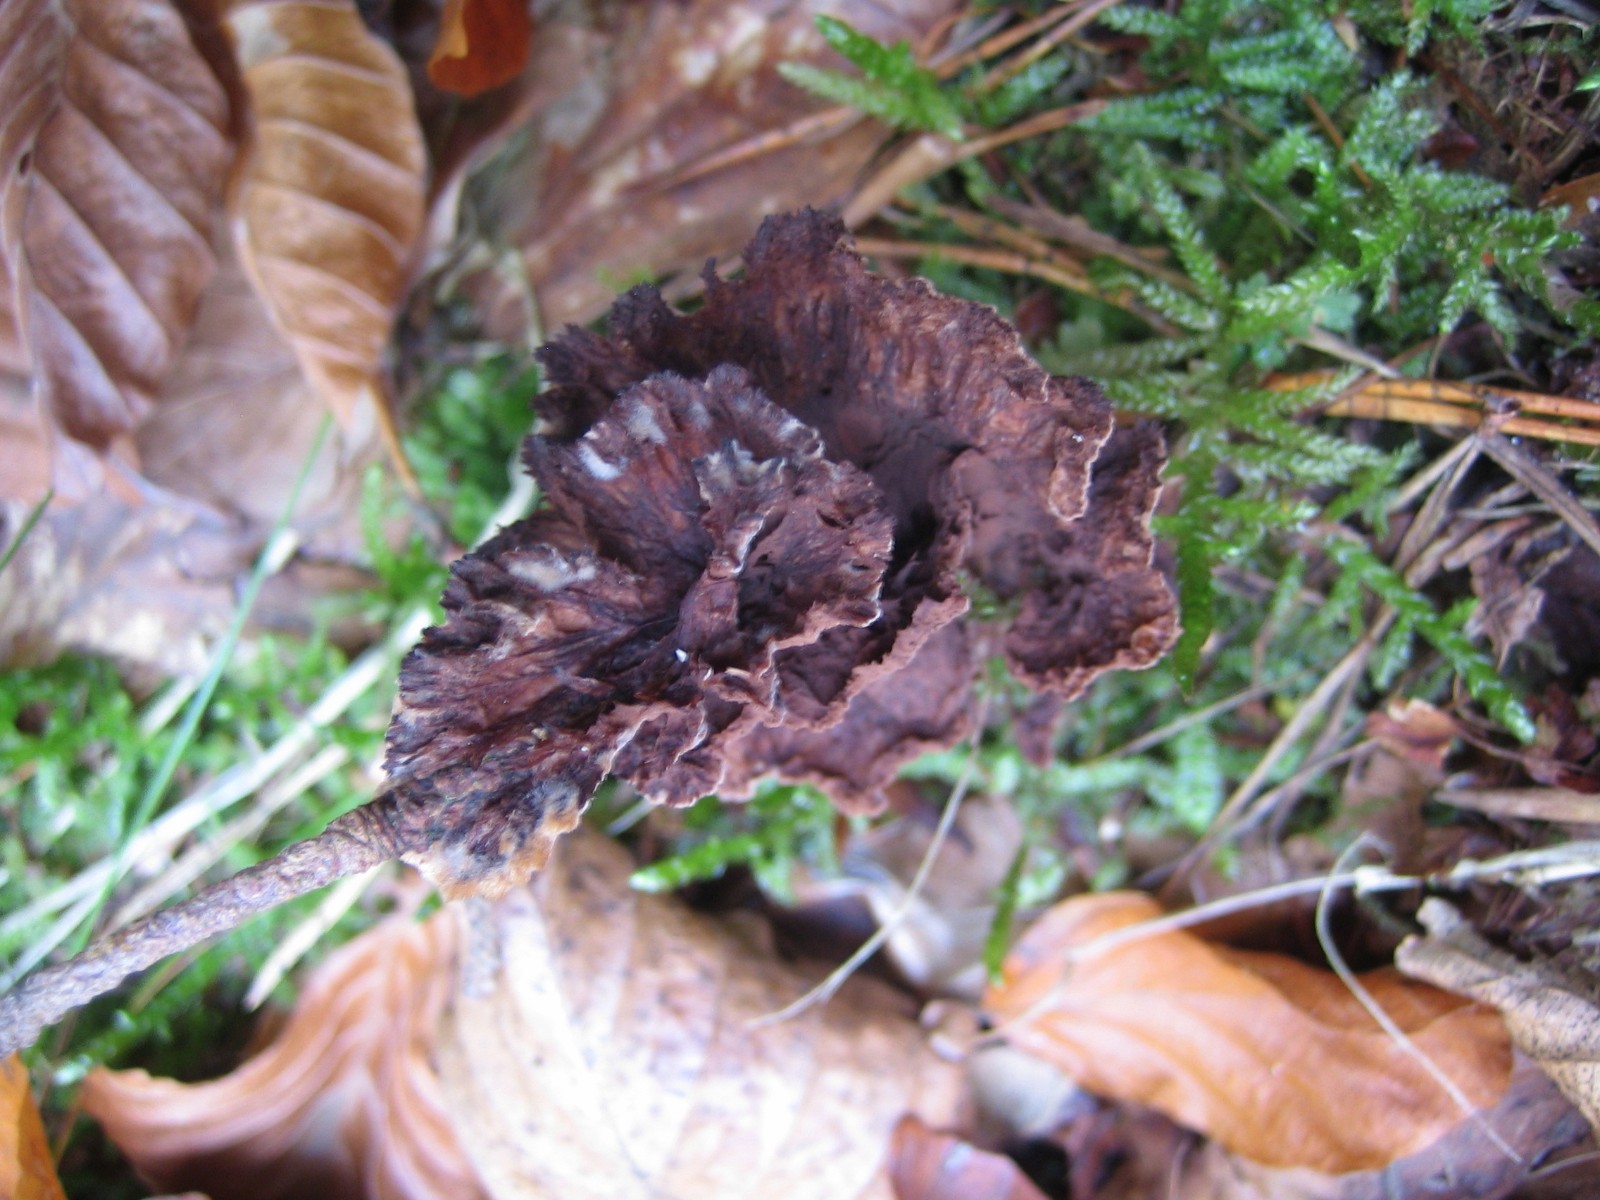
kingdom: Fungi
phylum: Basidiomycota
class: Agaricomycetes
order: Thelephorales
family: Thelephoraceae
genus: Thelephora
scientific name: Thelephora terrestris
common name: fliget frynsesvamp
